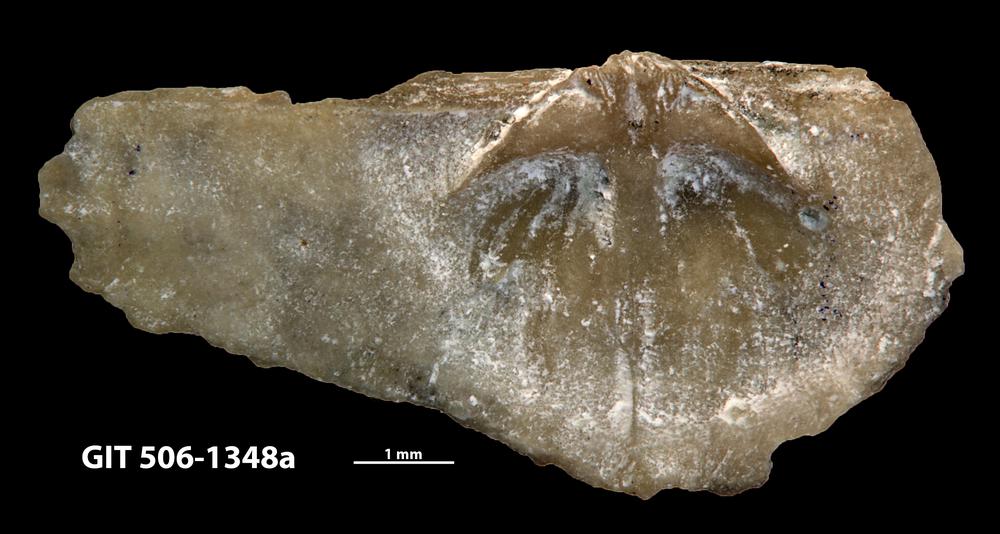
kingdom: Animalia
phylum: Brachiopoda
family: Strophomenidae
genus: Katastrophomena
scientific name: Katastrophomena woodlandensis
